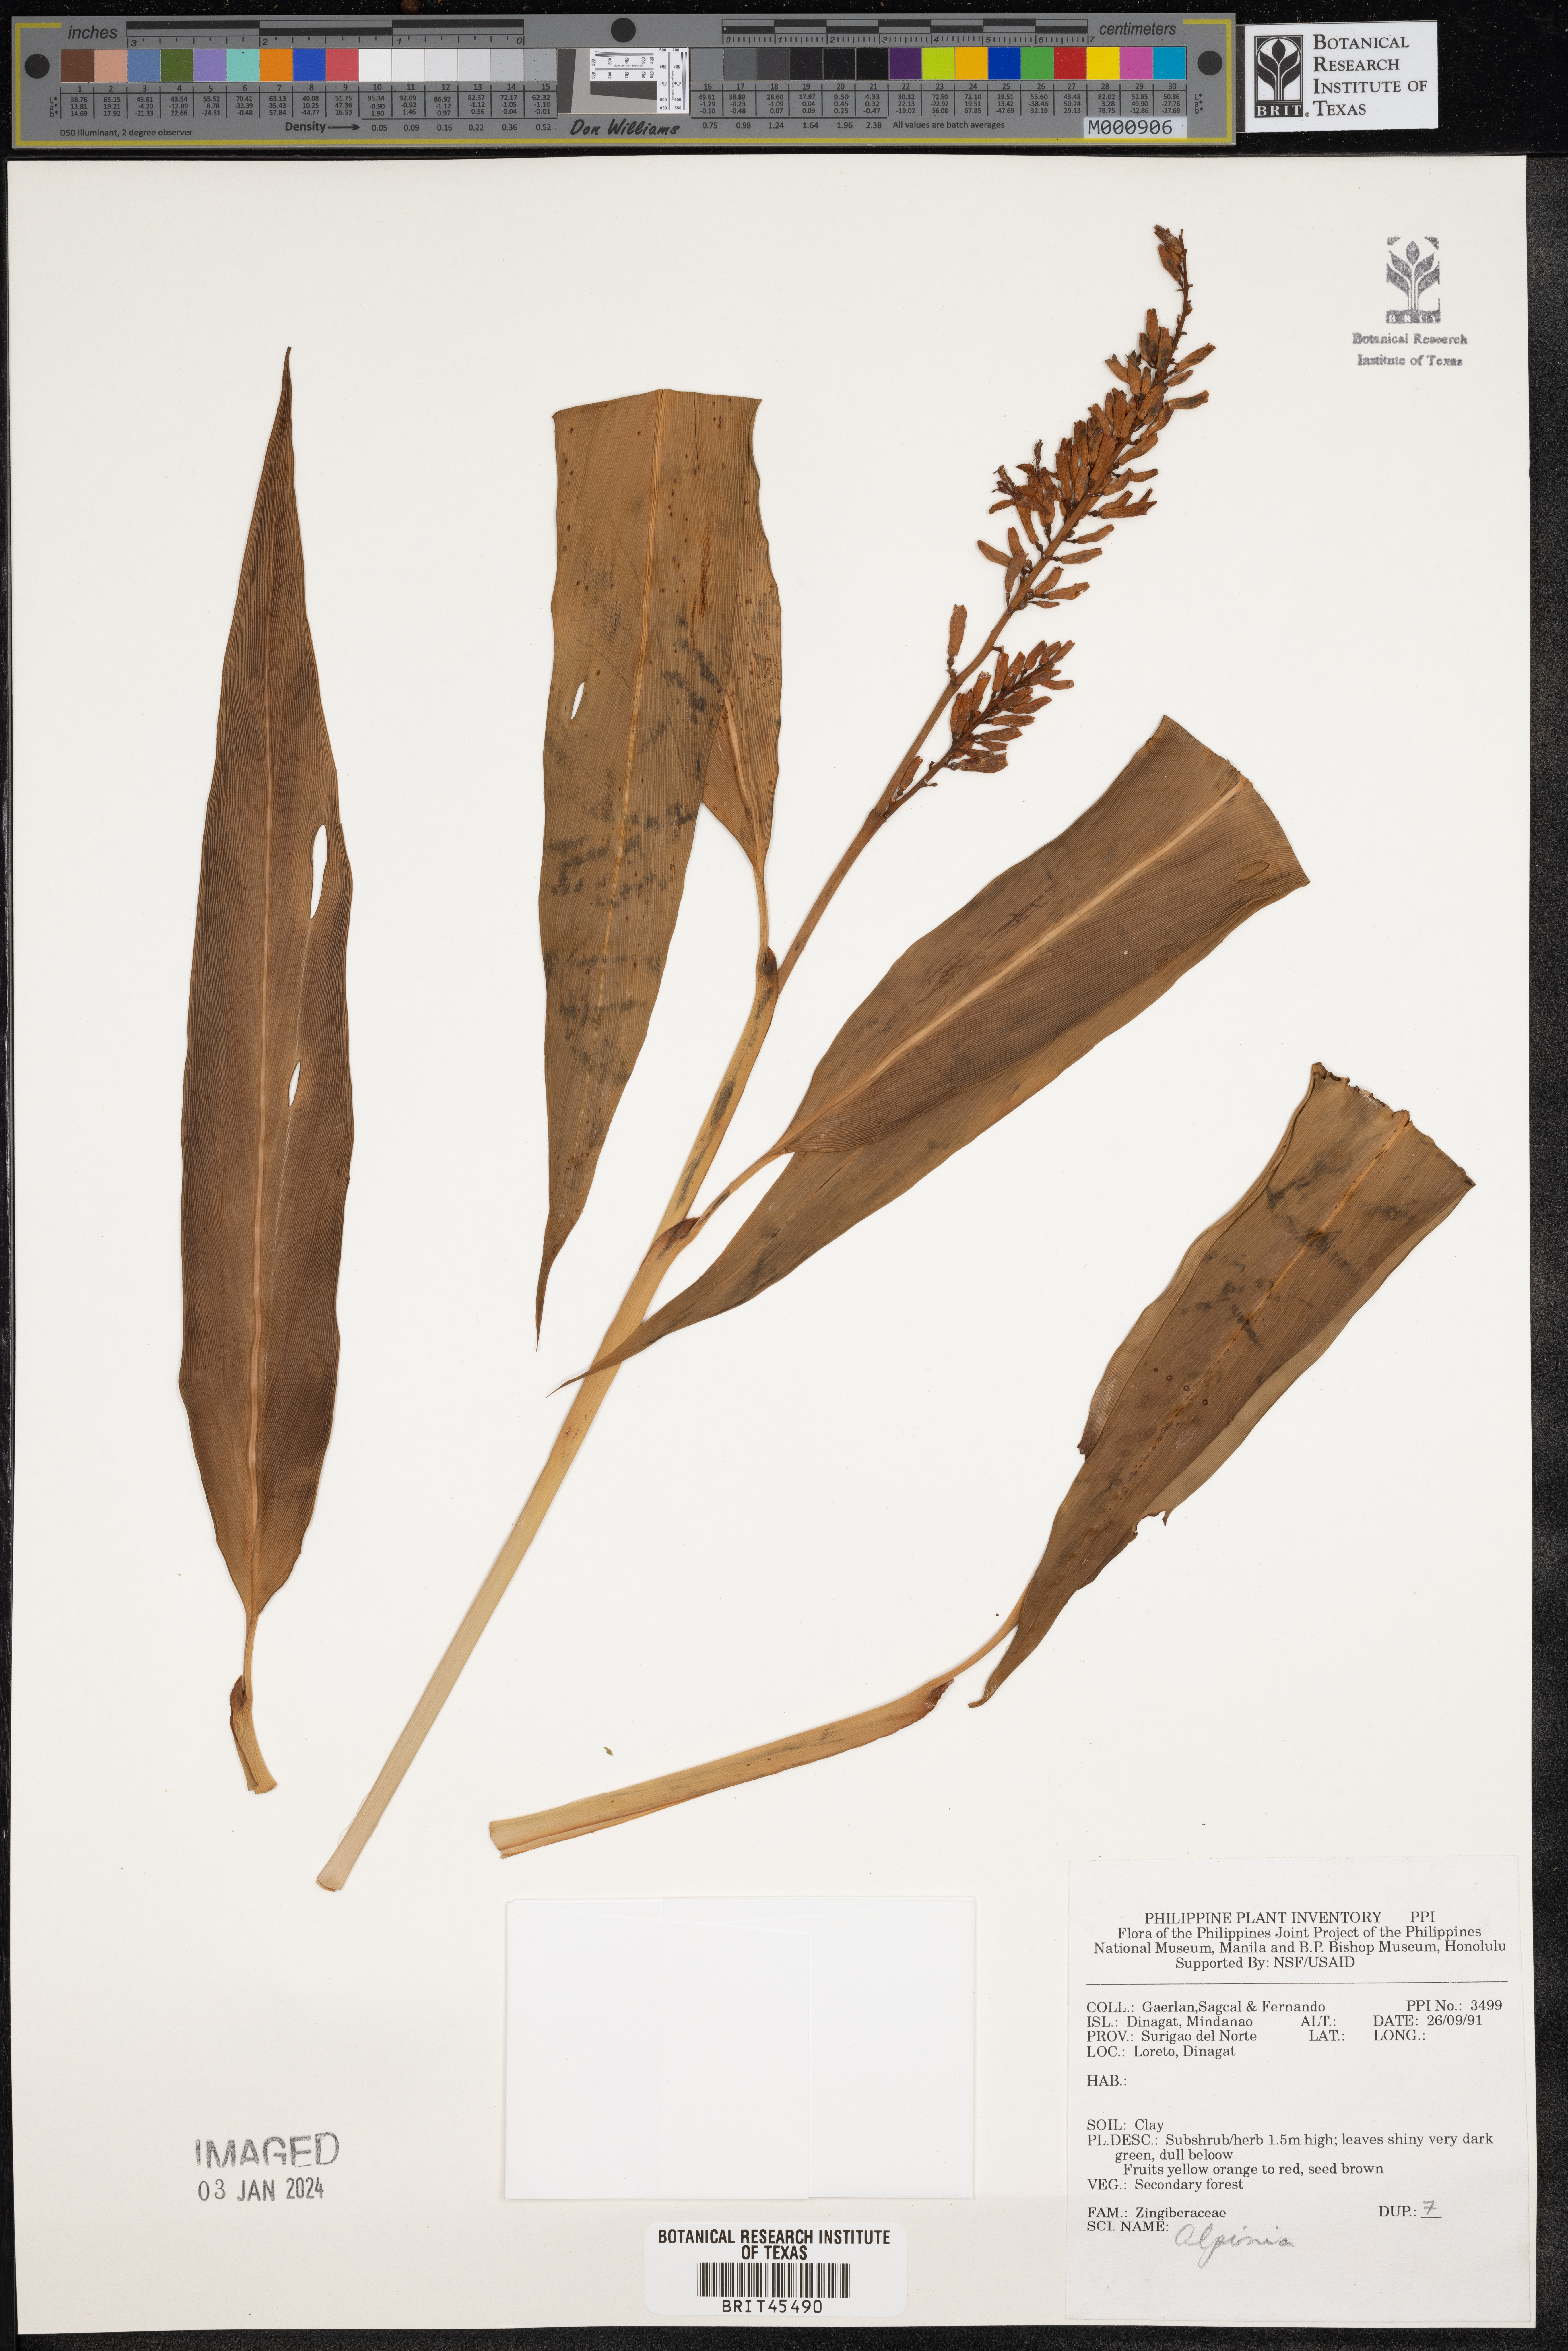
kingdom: Plantae
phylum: Tracheophyta
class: Liliopsida
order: Zingiberales
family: Zingiberaceae
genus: Alpinia
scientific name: Alpinia
